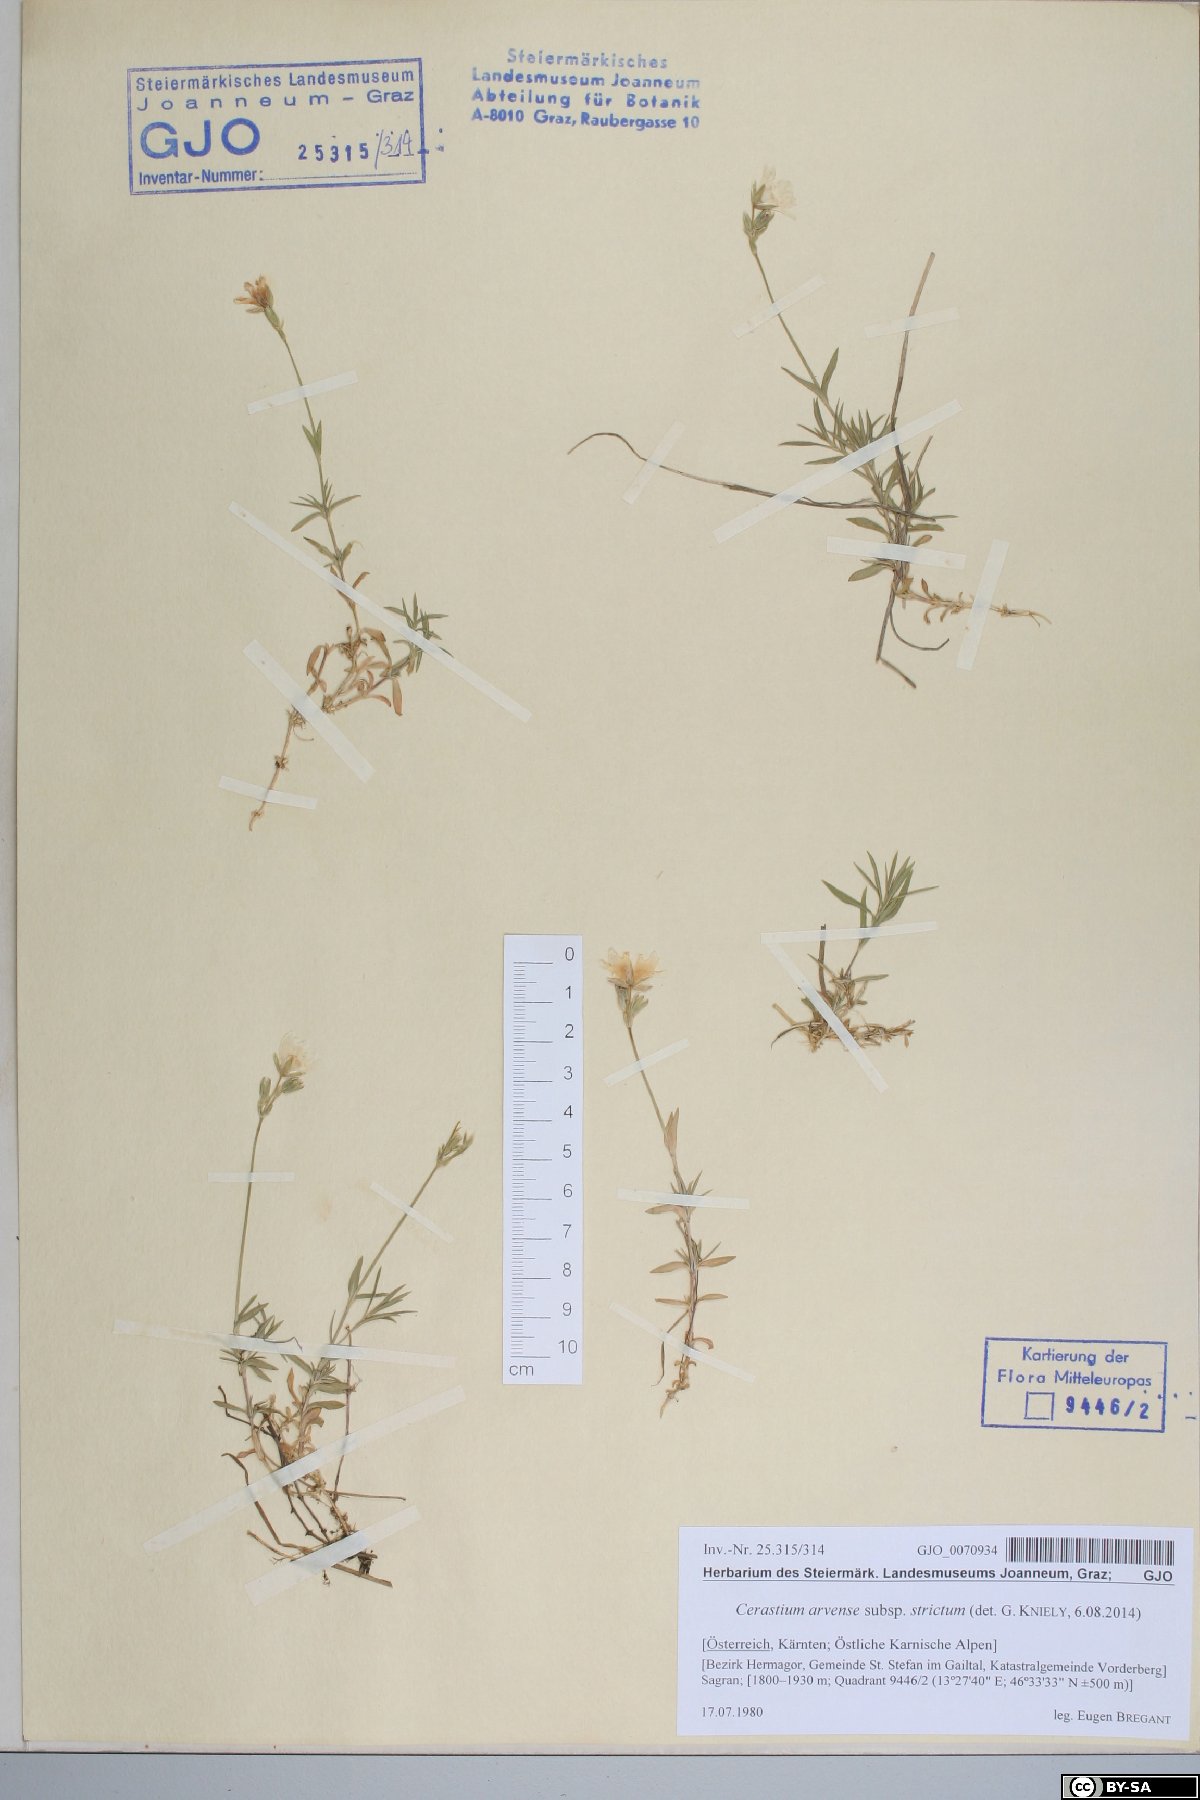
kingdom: Plantae
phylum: Tracheophyta
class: Magnoliopsida
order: Caryophyllales
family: Caryophyllaceae
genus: Cerastium
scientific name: Cerastium elongatum
